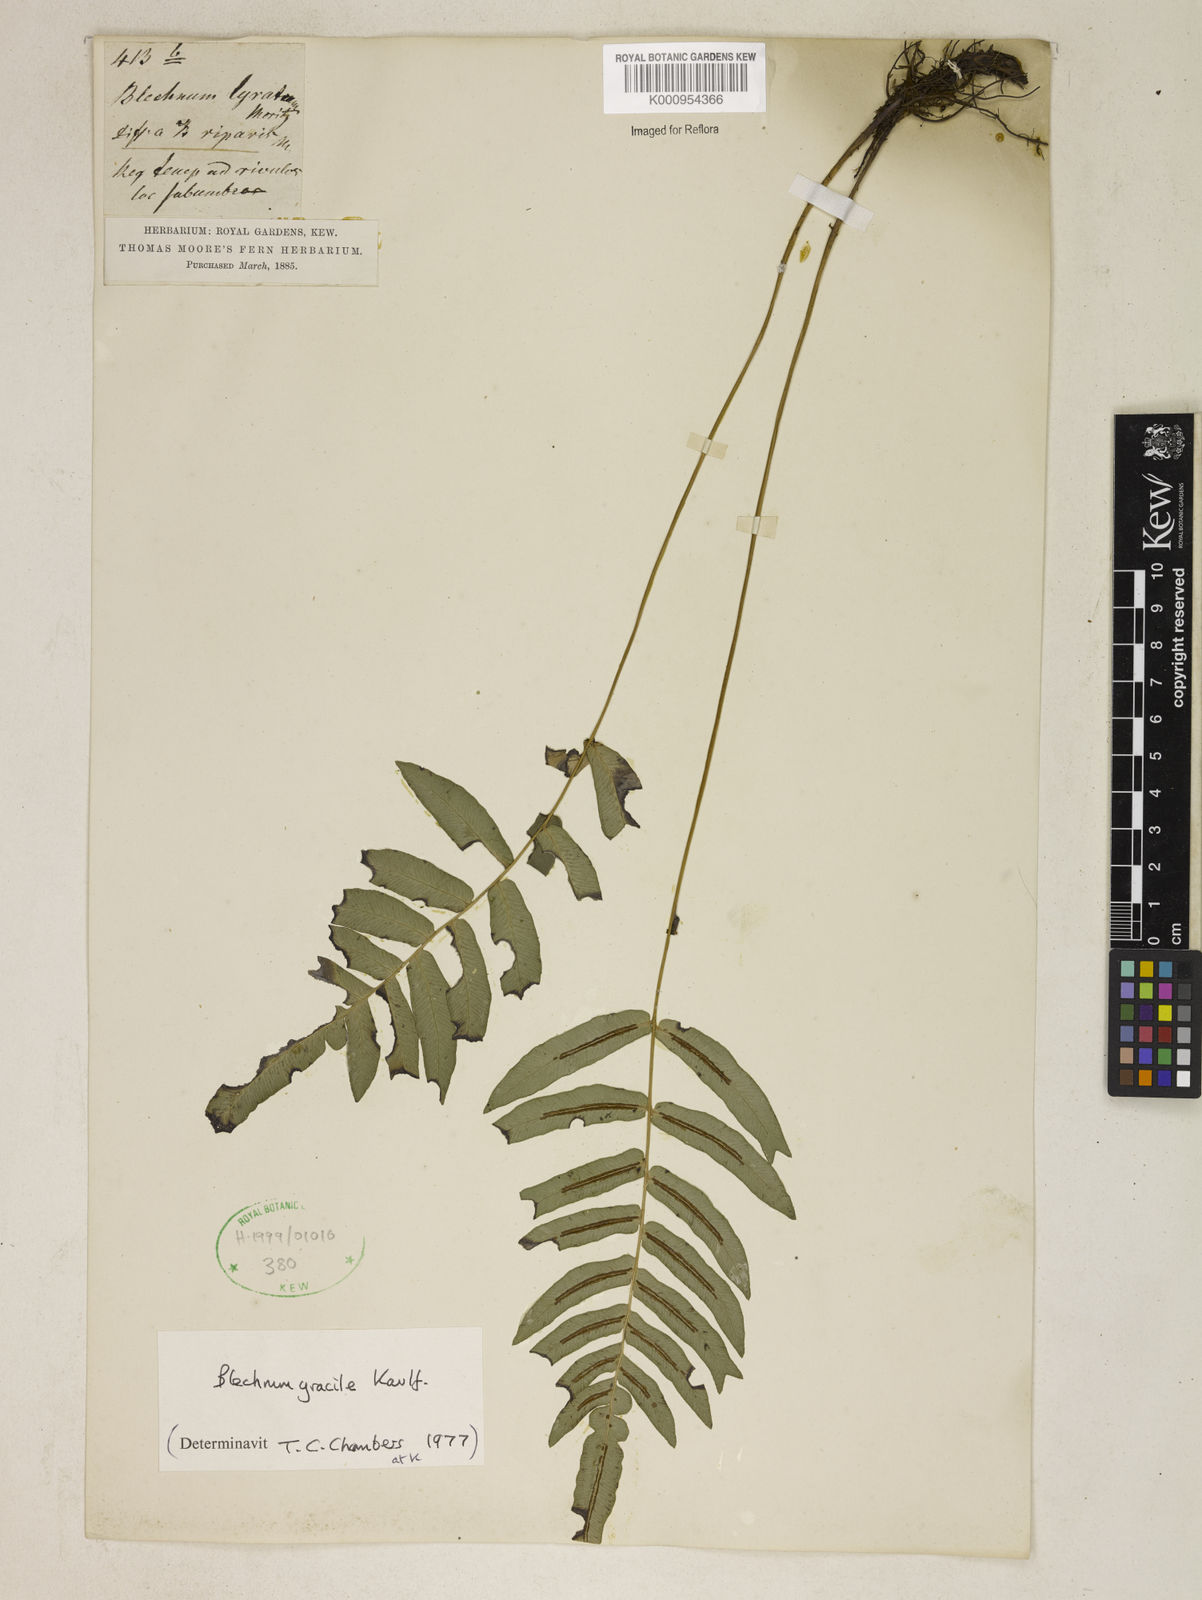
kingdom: Plantae
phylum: Tracheophyta
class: Polypodiopsida
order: Polypodiales
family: Blechnaceae
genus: Blechnum
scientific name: Blechnum gracile
